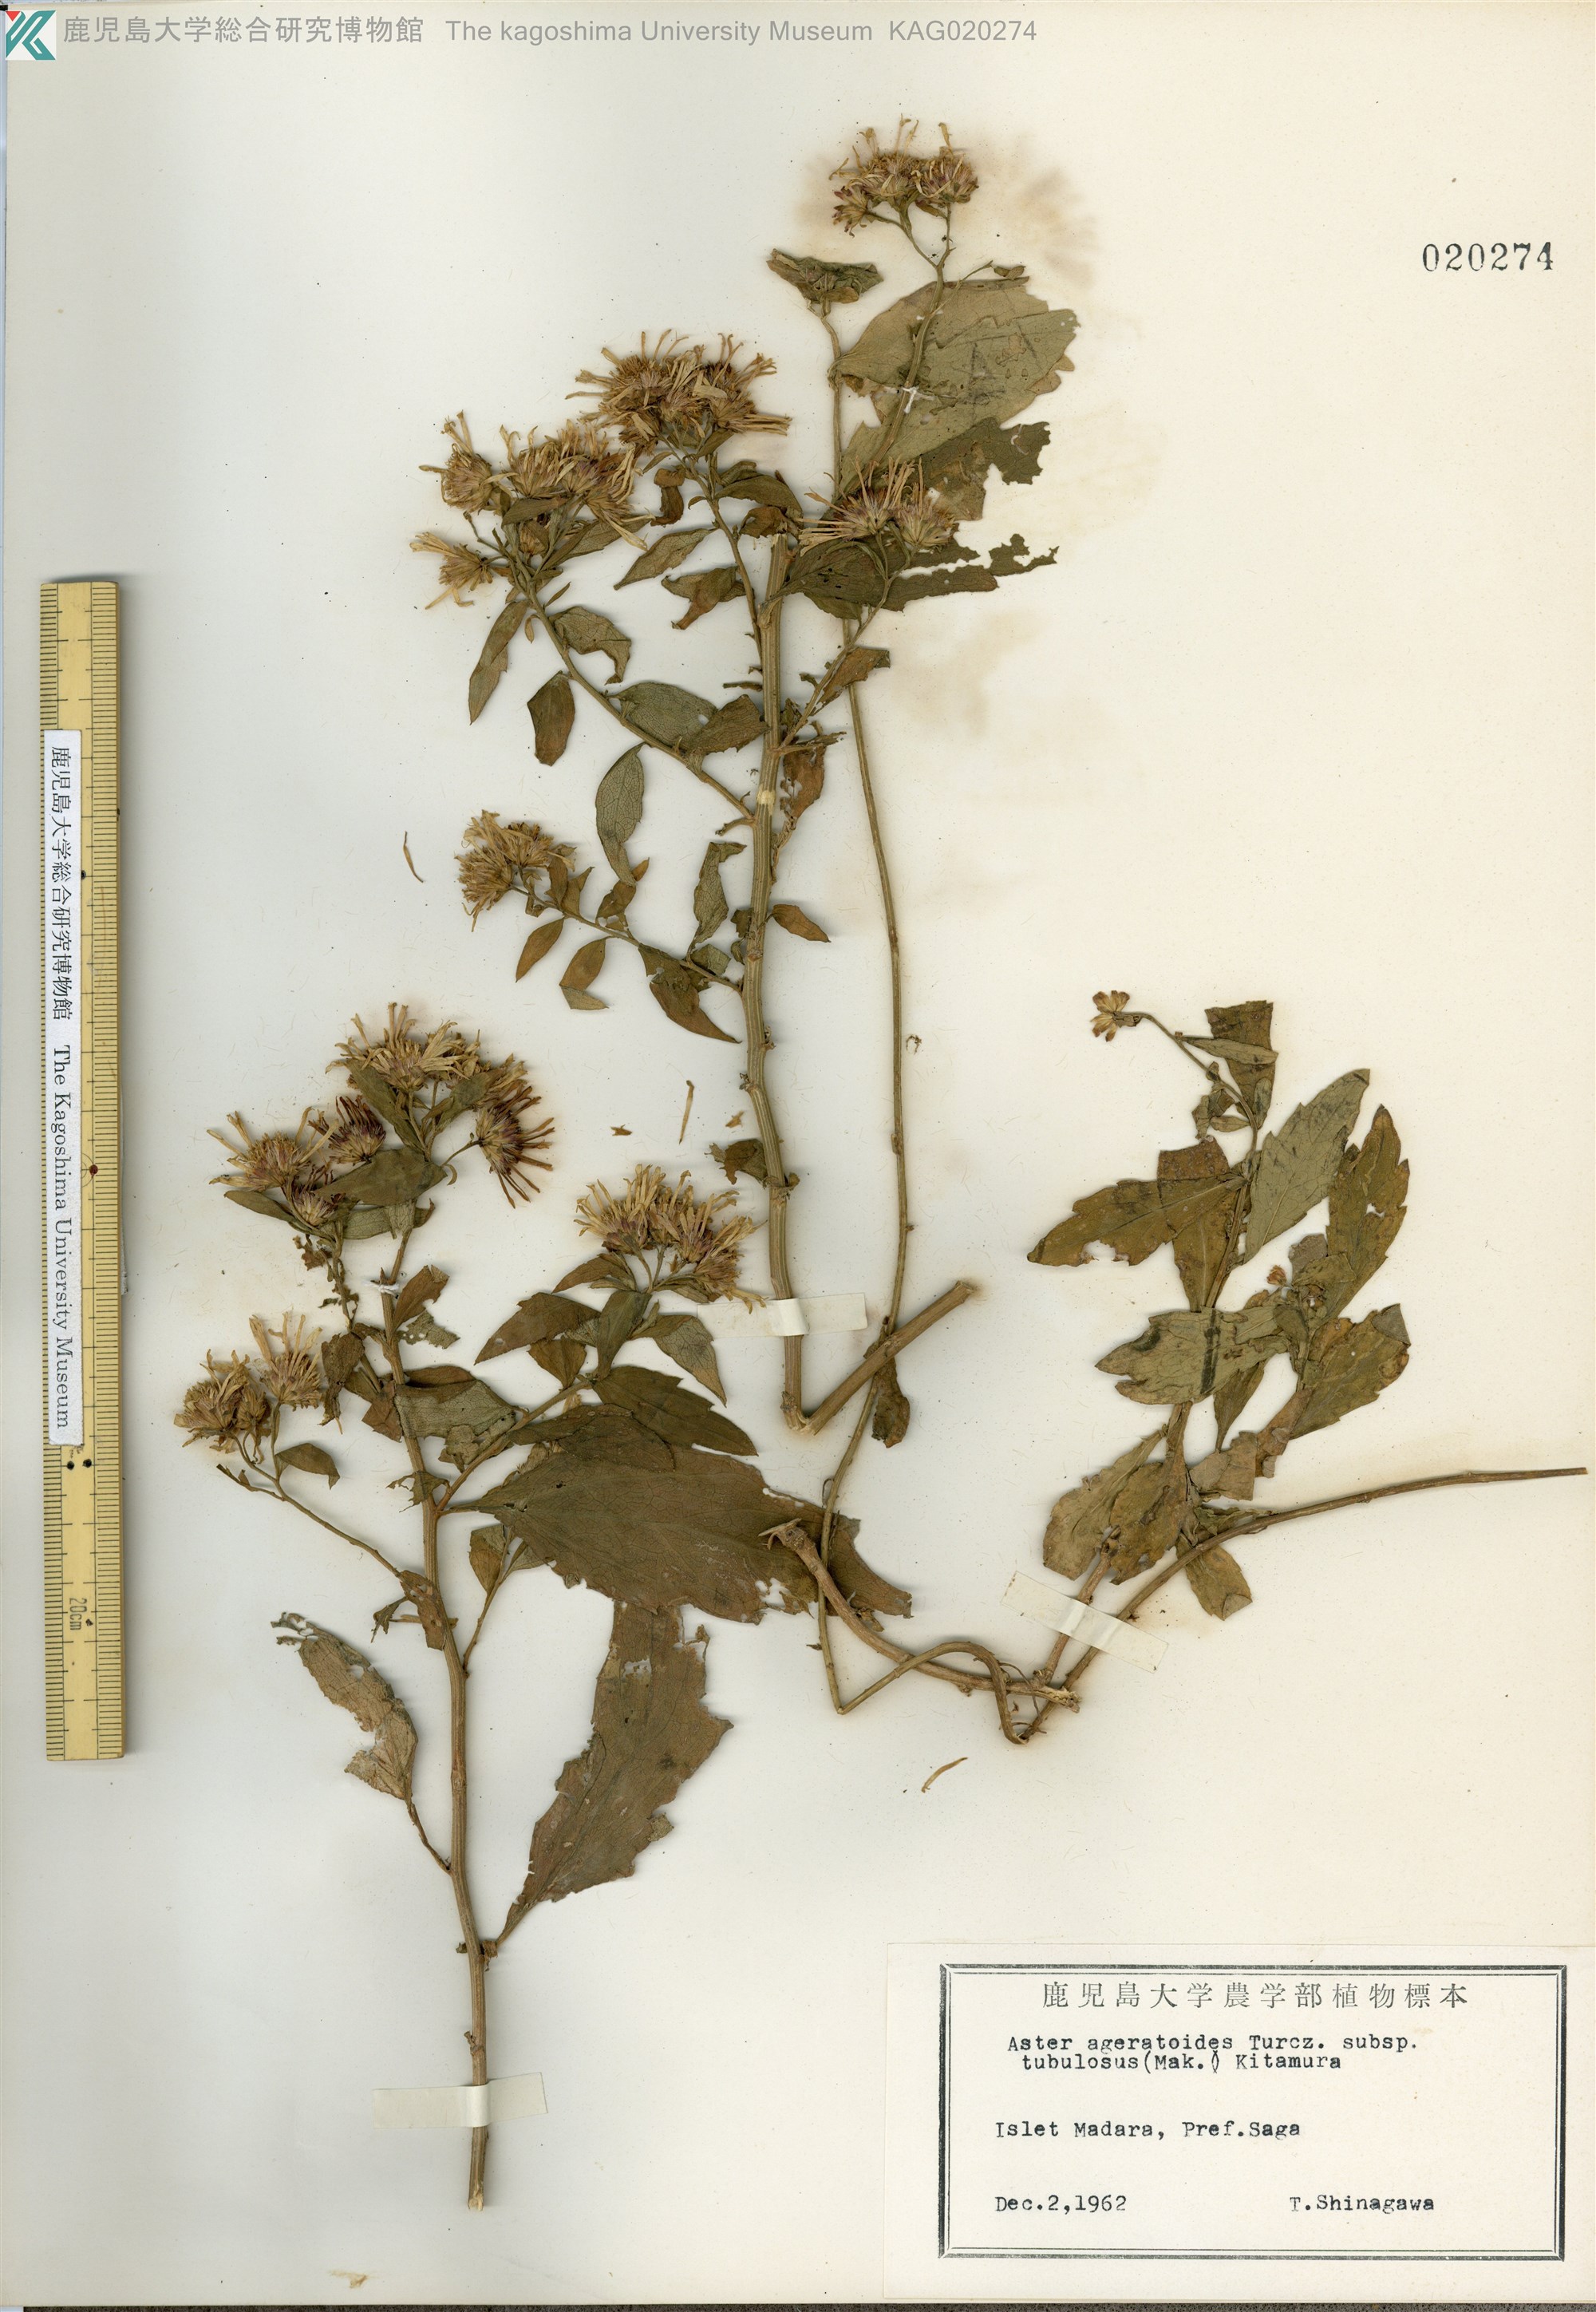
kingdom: Plantae
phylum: Tracheophyta
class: Magnoliopsida
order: Asterales
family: Asteraceae
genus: Aster
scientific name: Aster microcephalus
